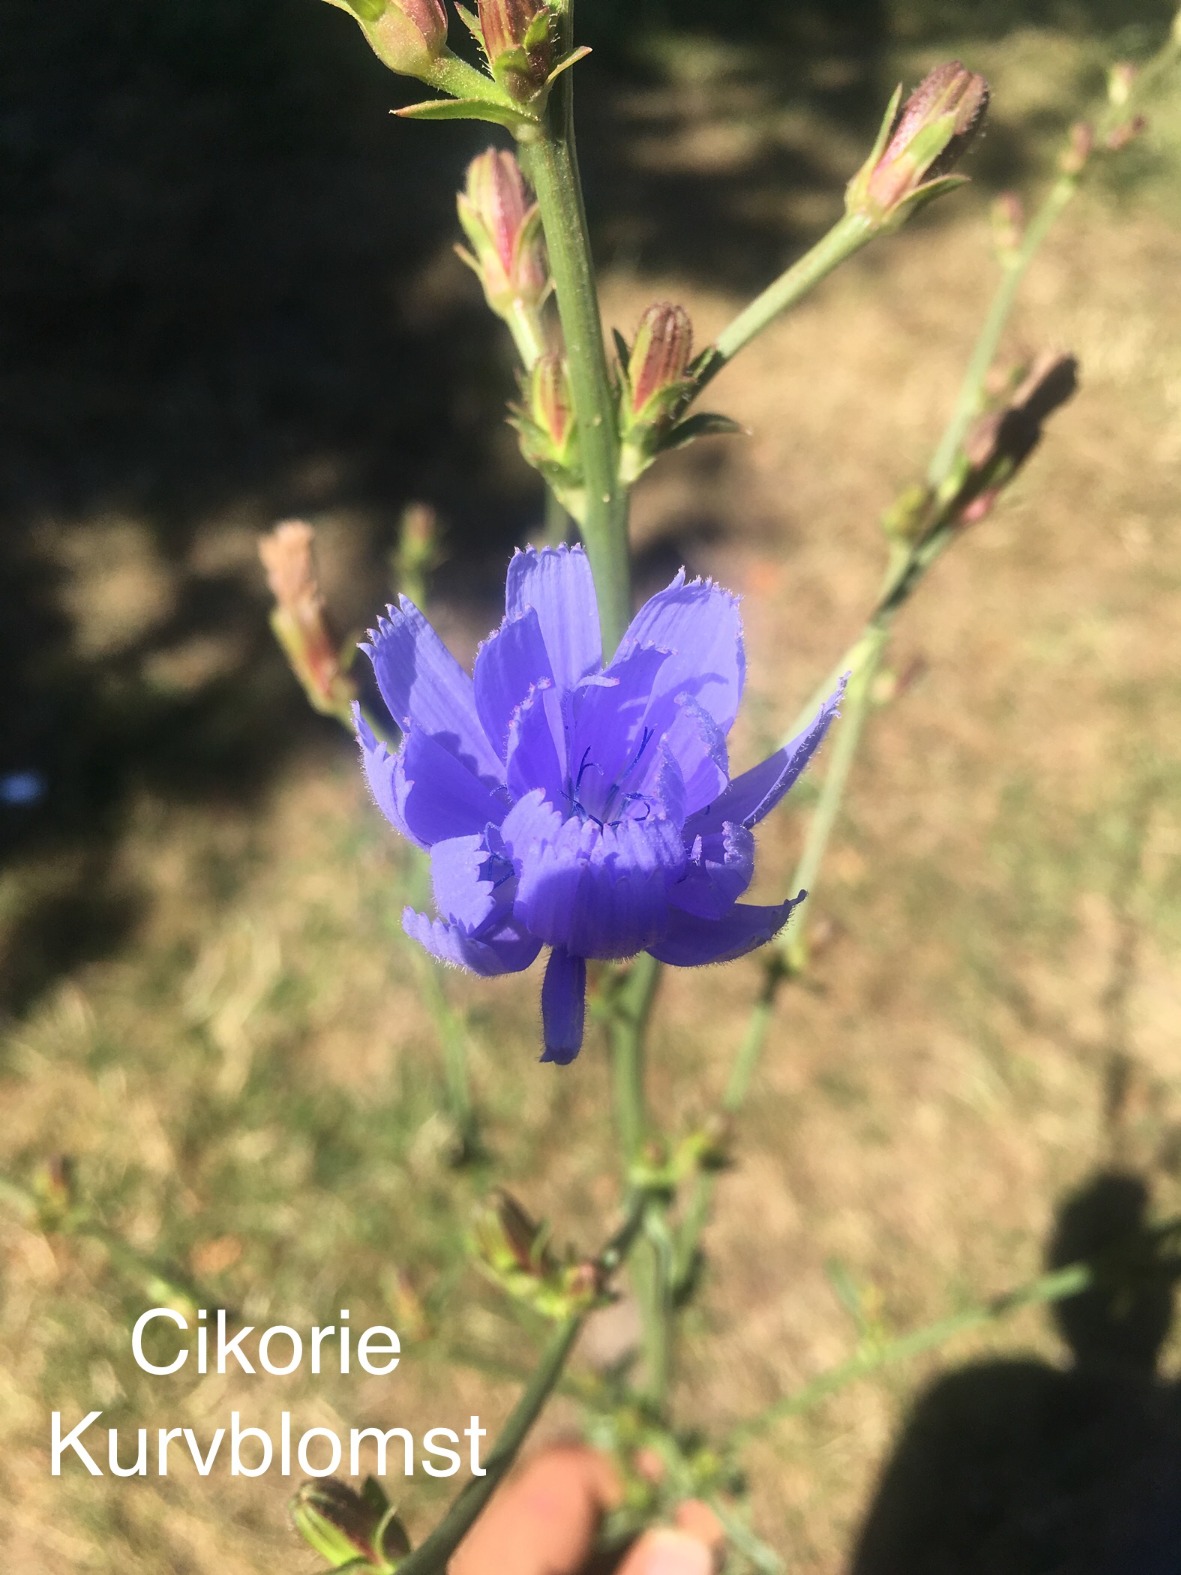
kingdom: Plantae
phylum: Tracheophyta
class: Magnoliopsida
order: Asterales
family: Asteraceae
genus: Cichorium
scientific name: Cichorium intybus
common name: Cikorie
